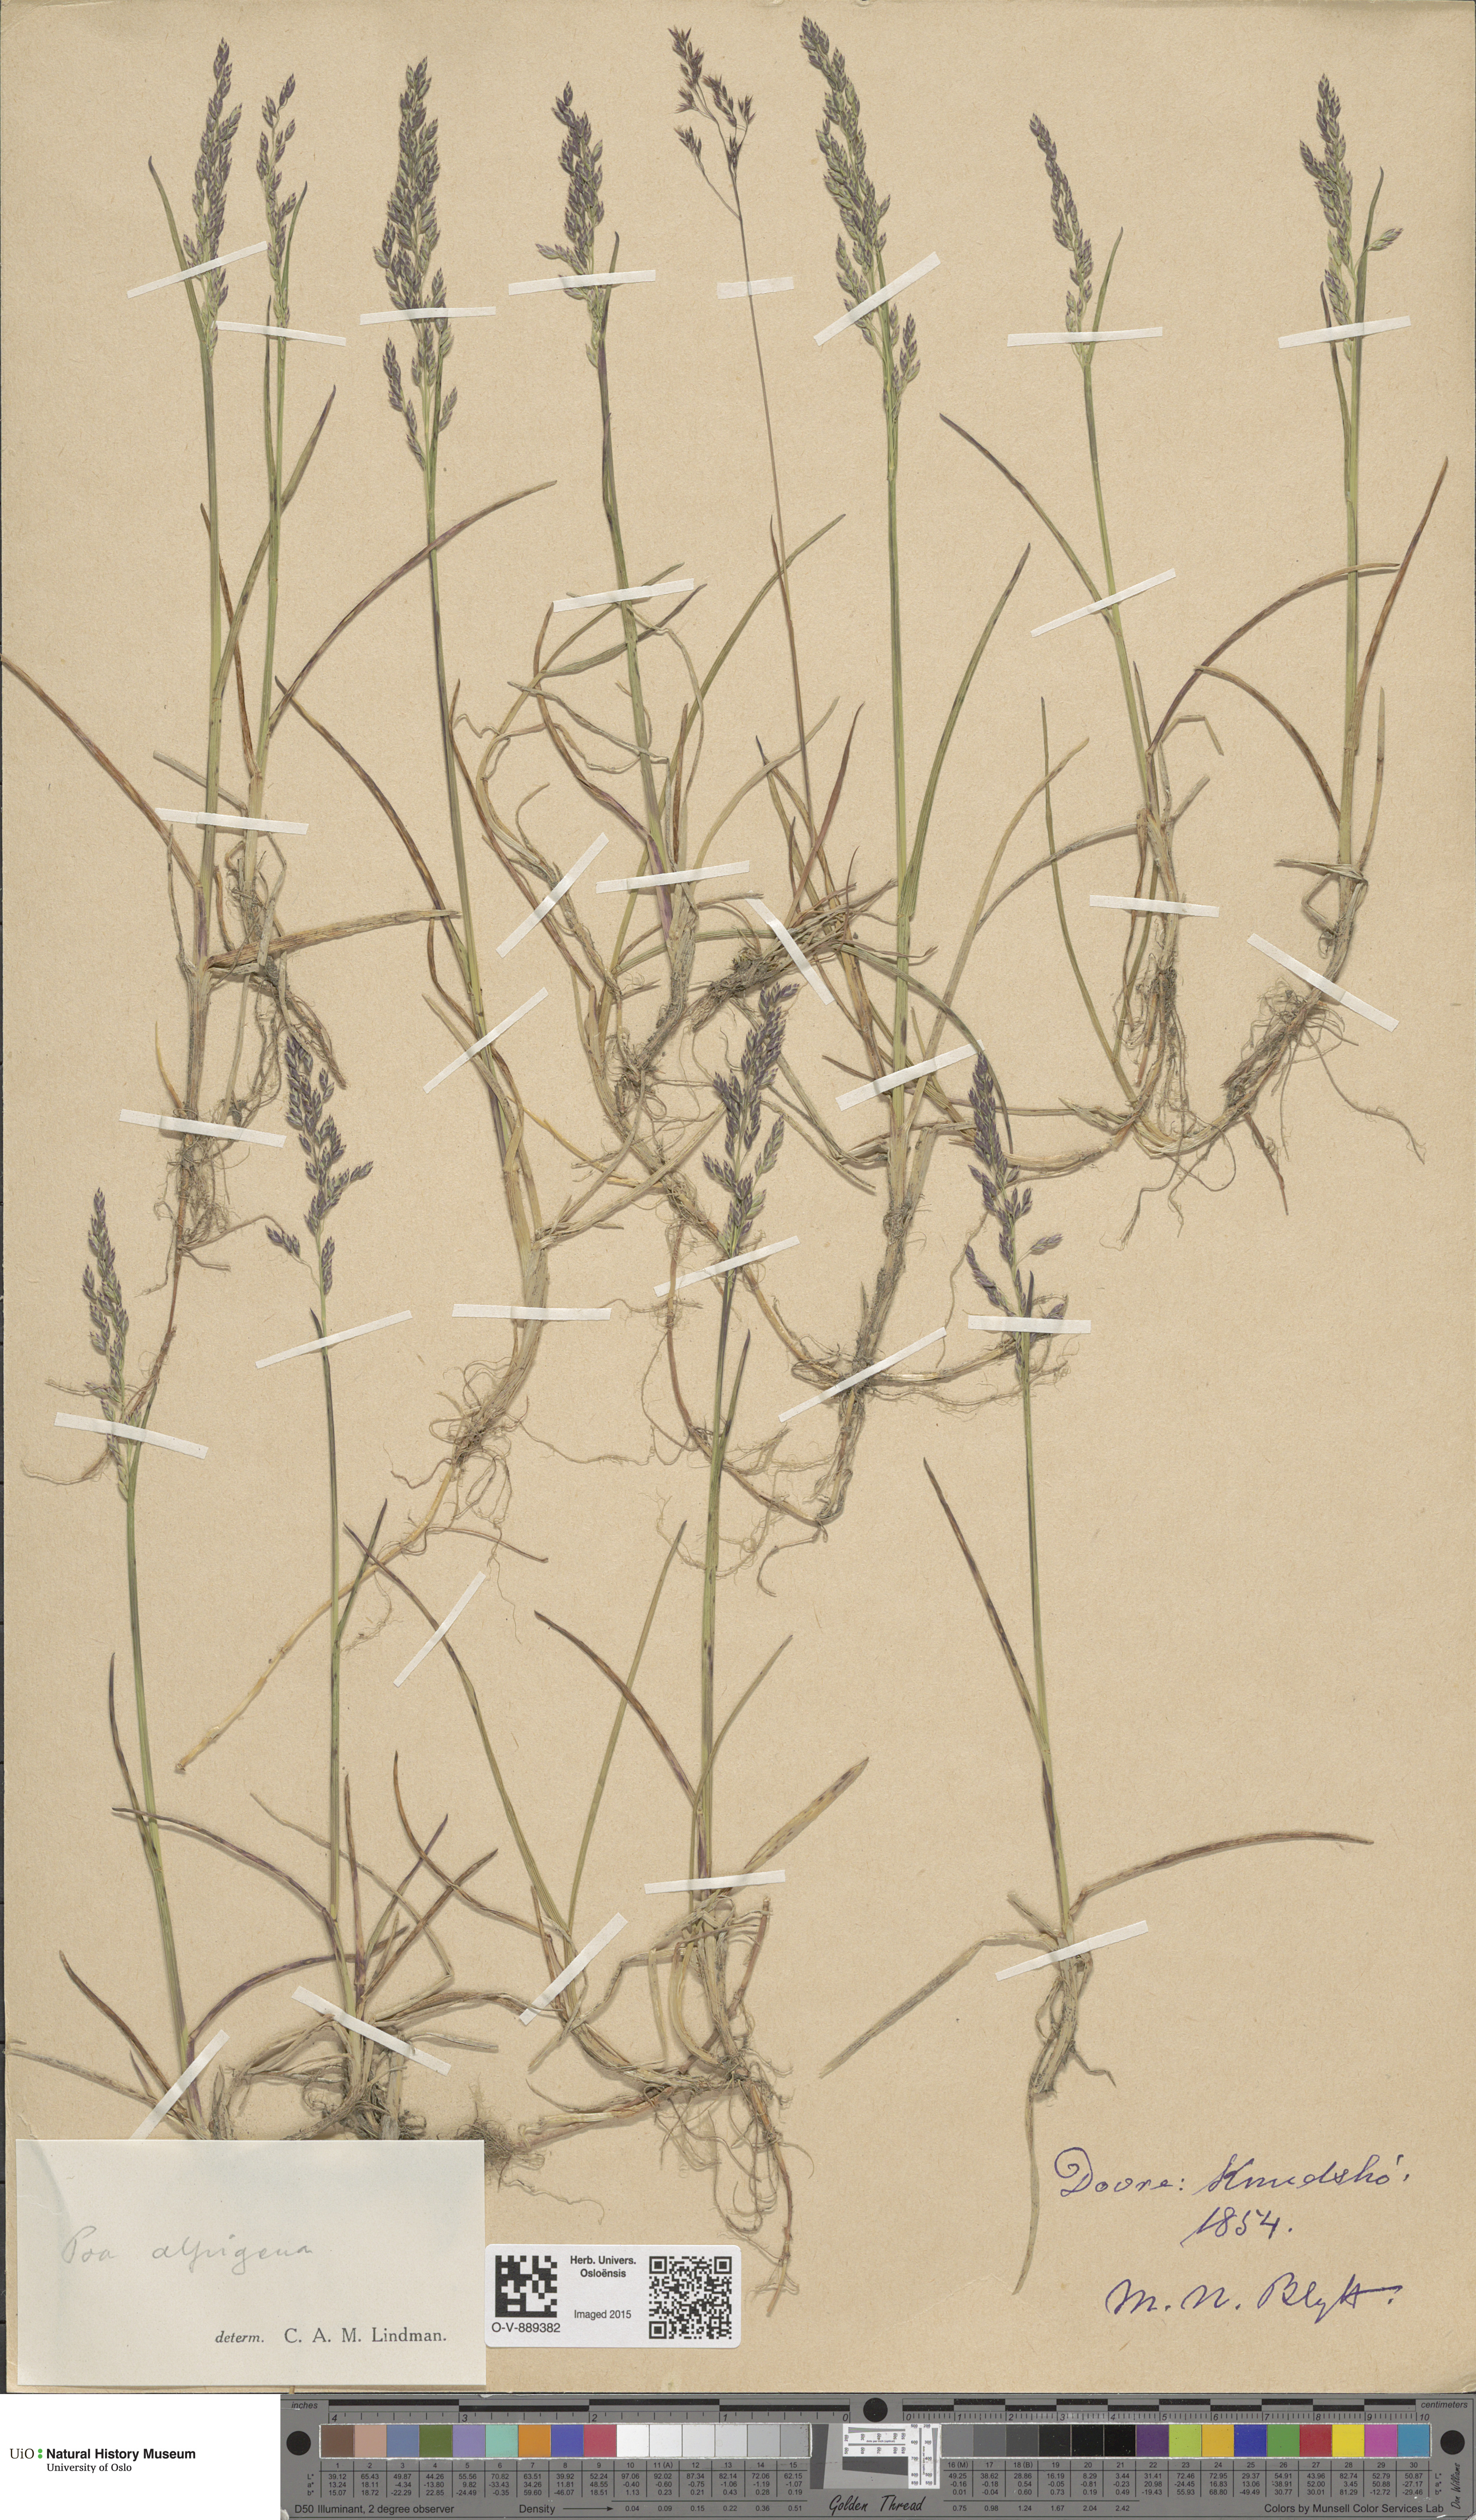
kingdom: Plantae
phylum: Tracheophyta
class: Liliopsida
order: Poales
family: Poaceae
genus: Poa
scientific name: Poa alpigena
